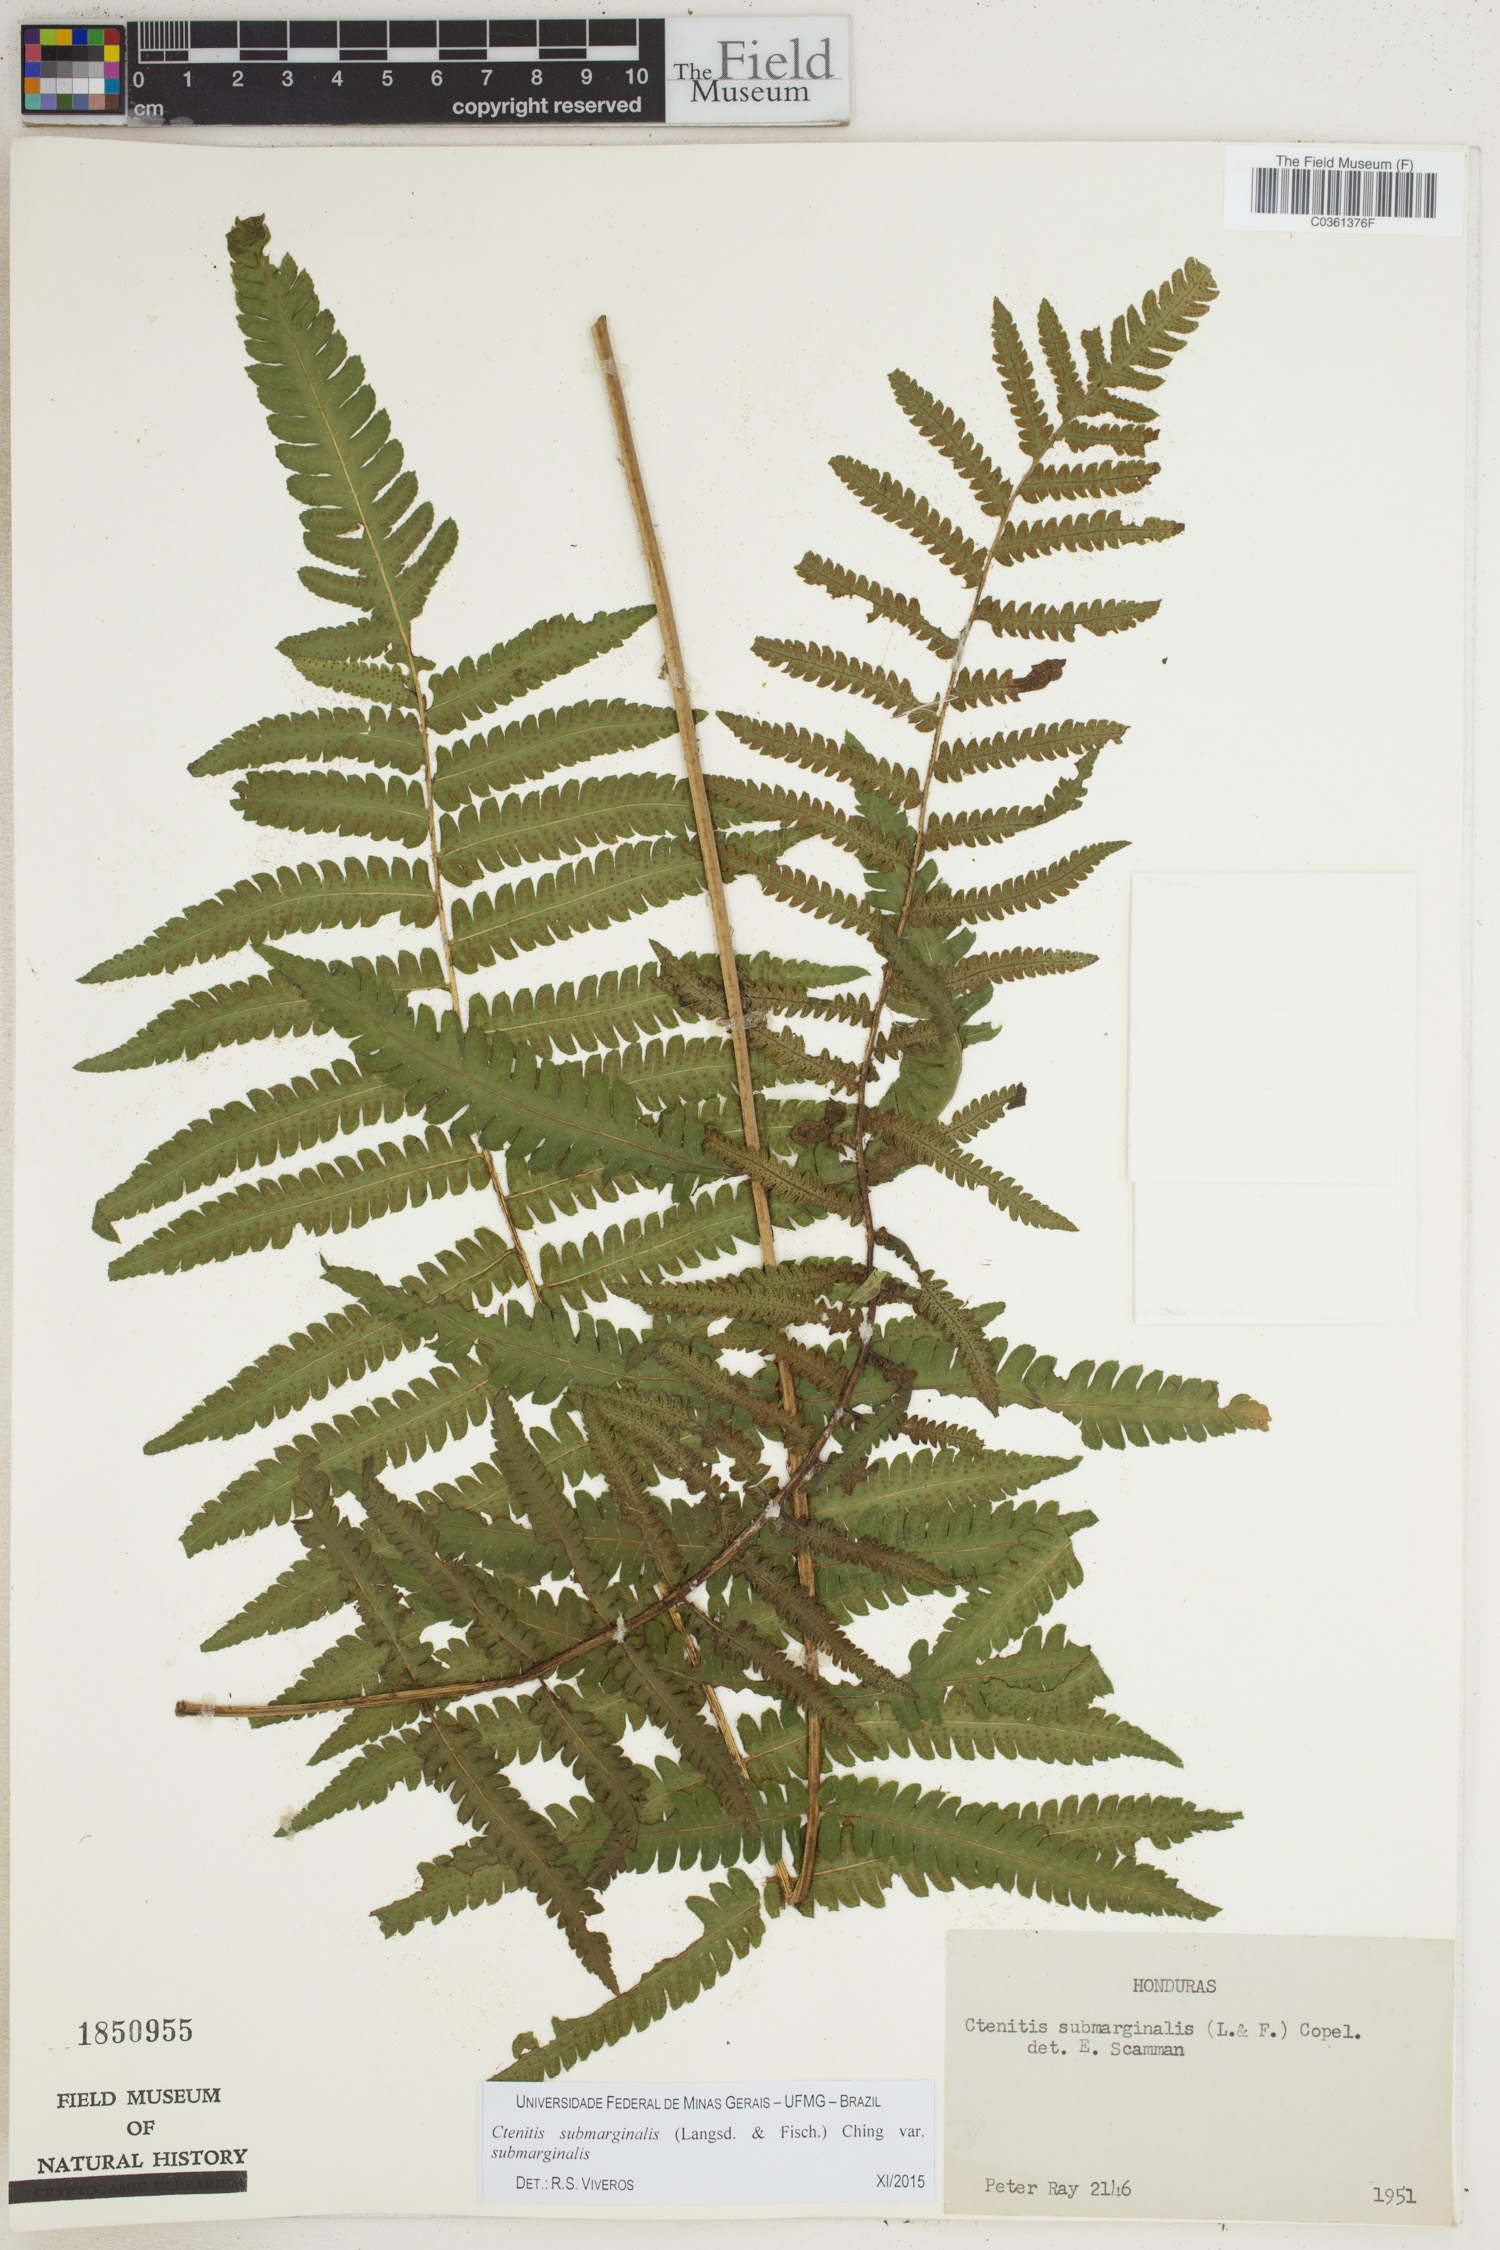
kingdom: Plantae
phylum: Tracheophyta
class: Polypodiopsida
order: Polypodiales
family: Dryopteridaceae
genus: Ctenitis
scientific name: Ctenitis submarginalis
